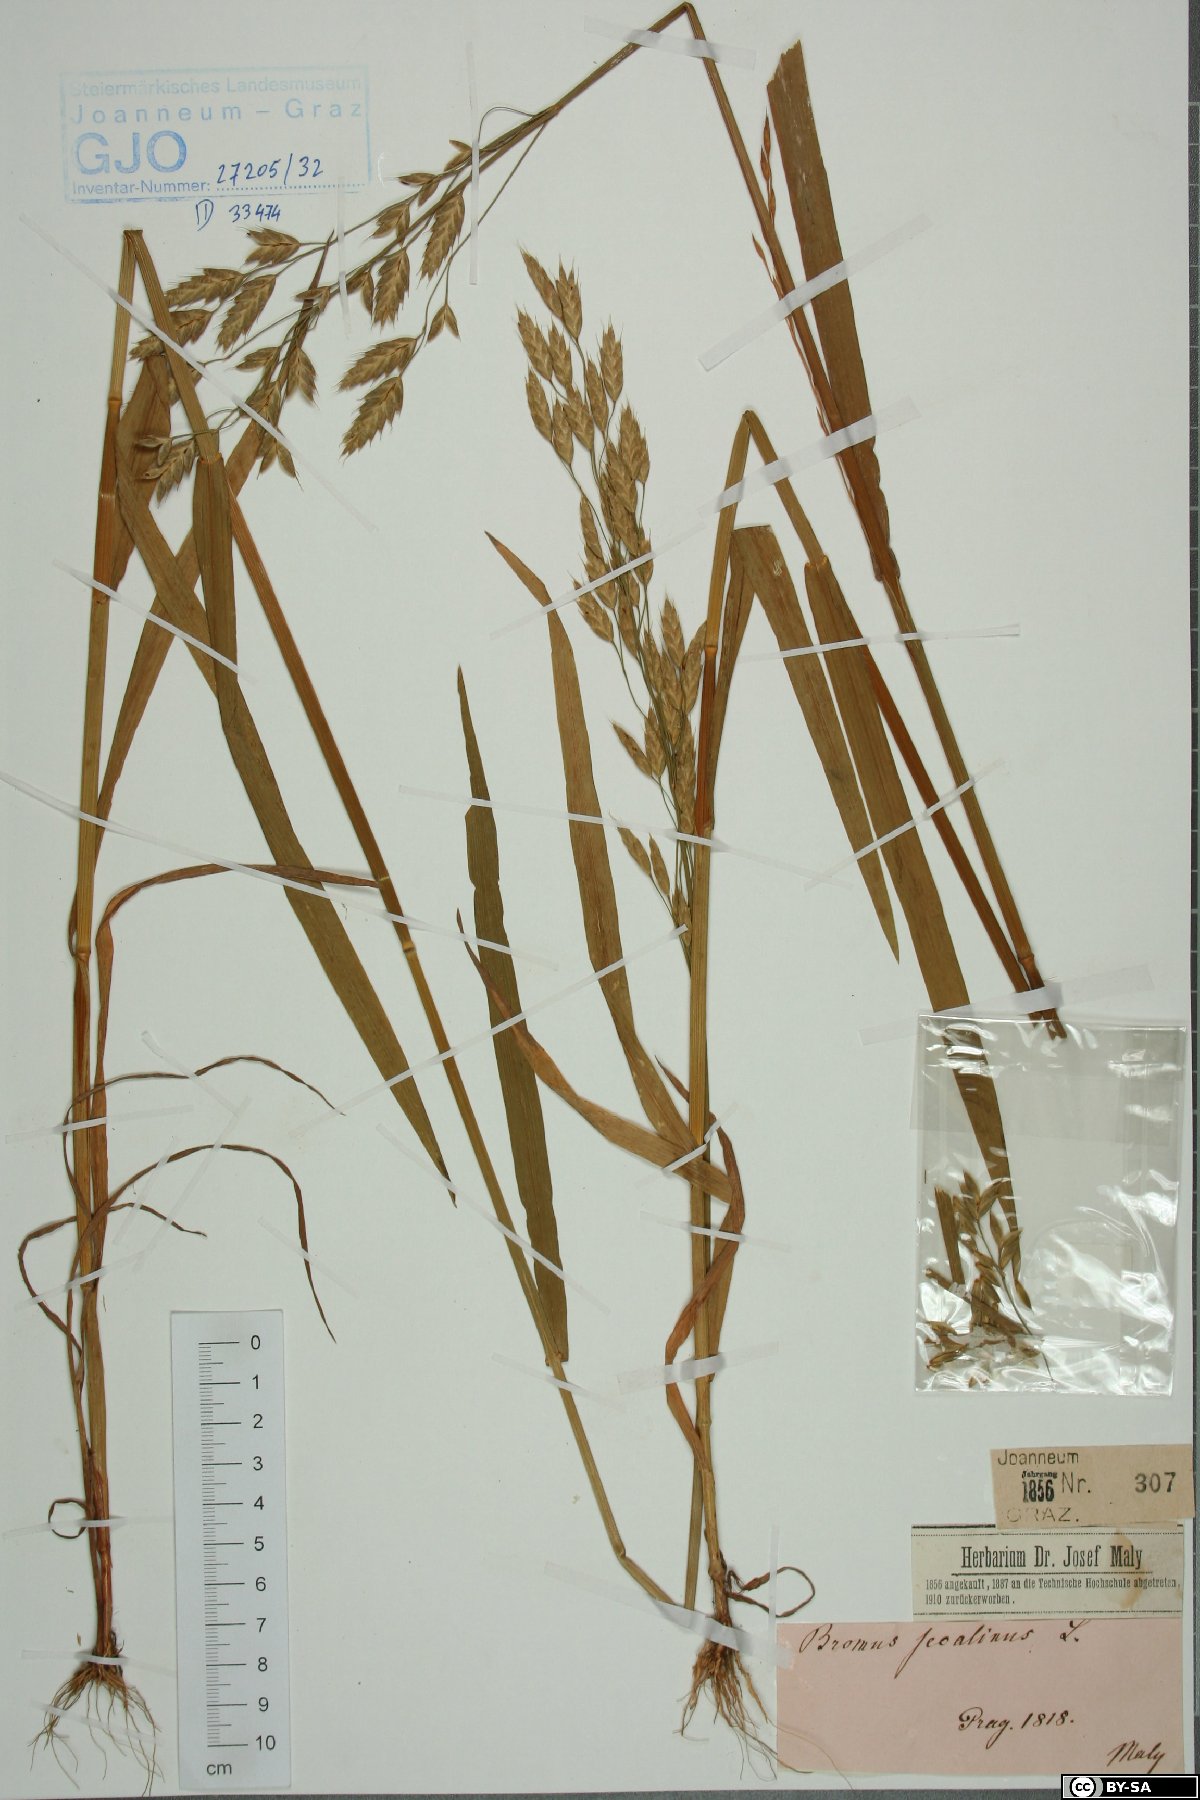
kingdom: Plantae
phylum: Tracheophyta
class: Liliopsida
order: Poales
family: Poaceae
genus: Bromus
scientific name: Bromus secalinus
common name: Rye brome
